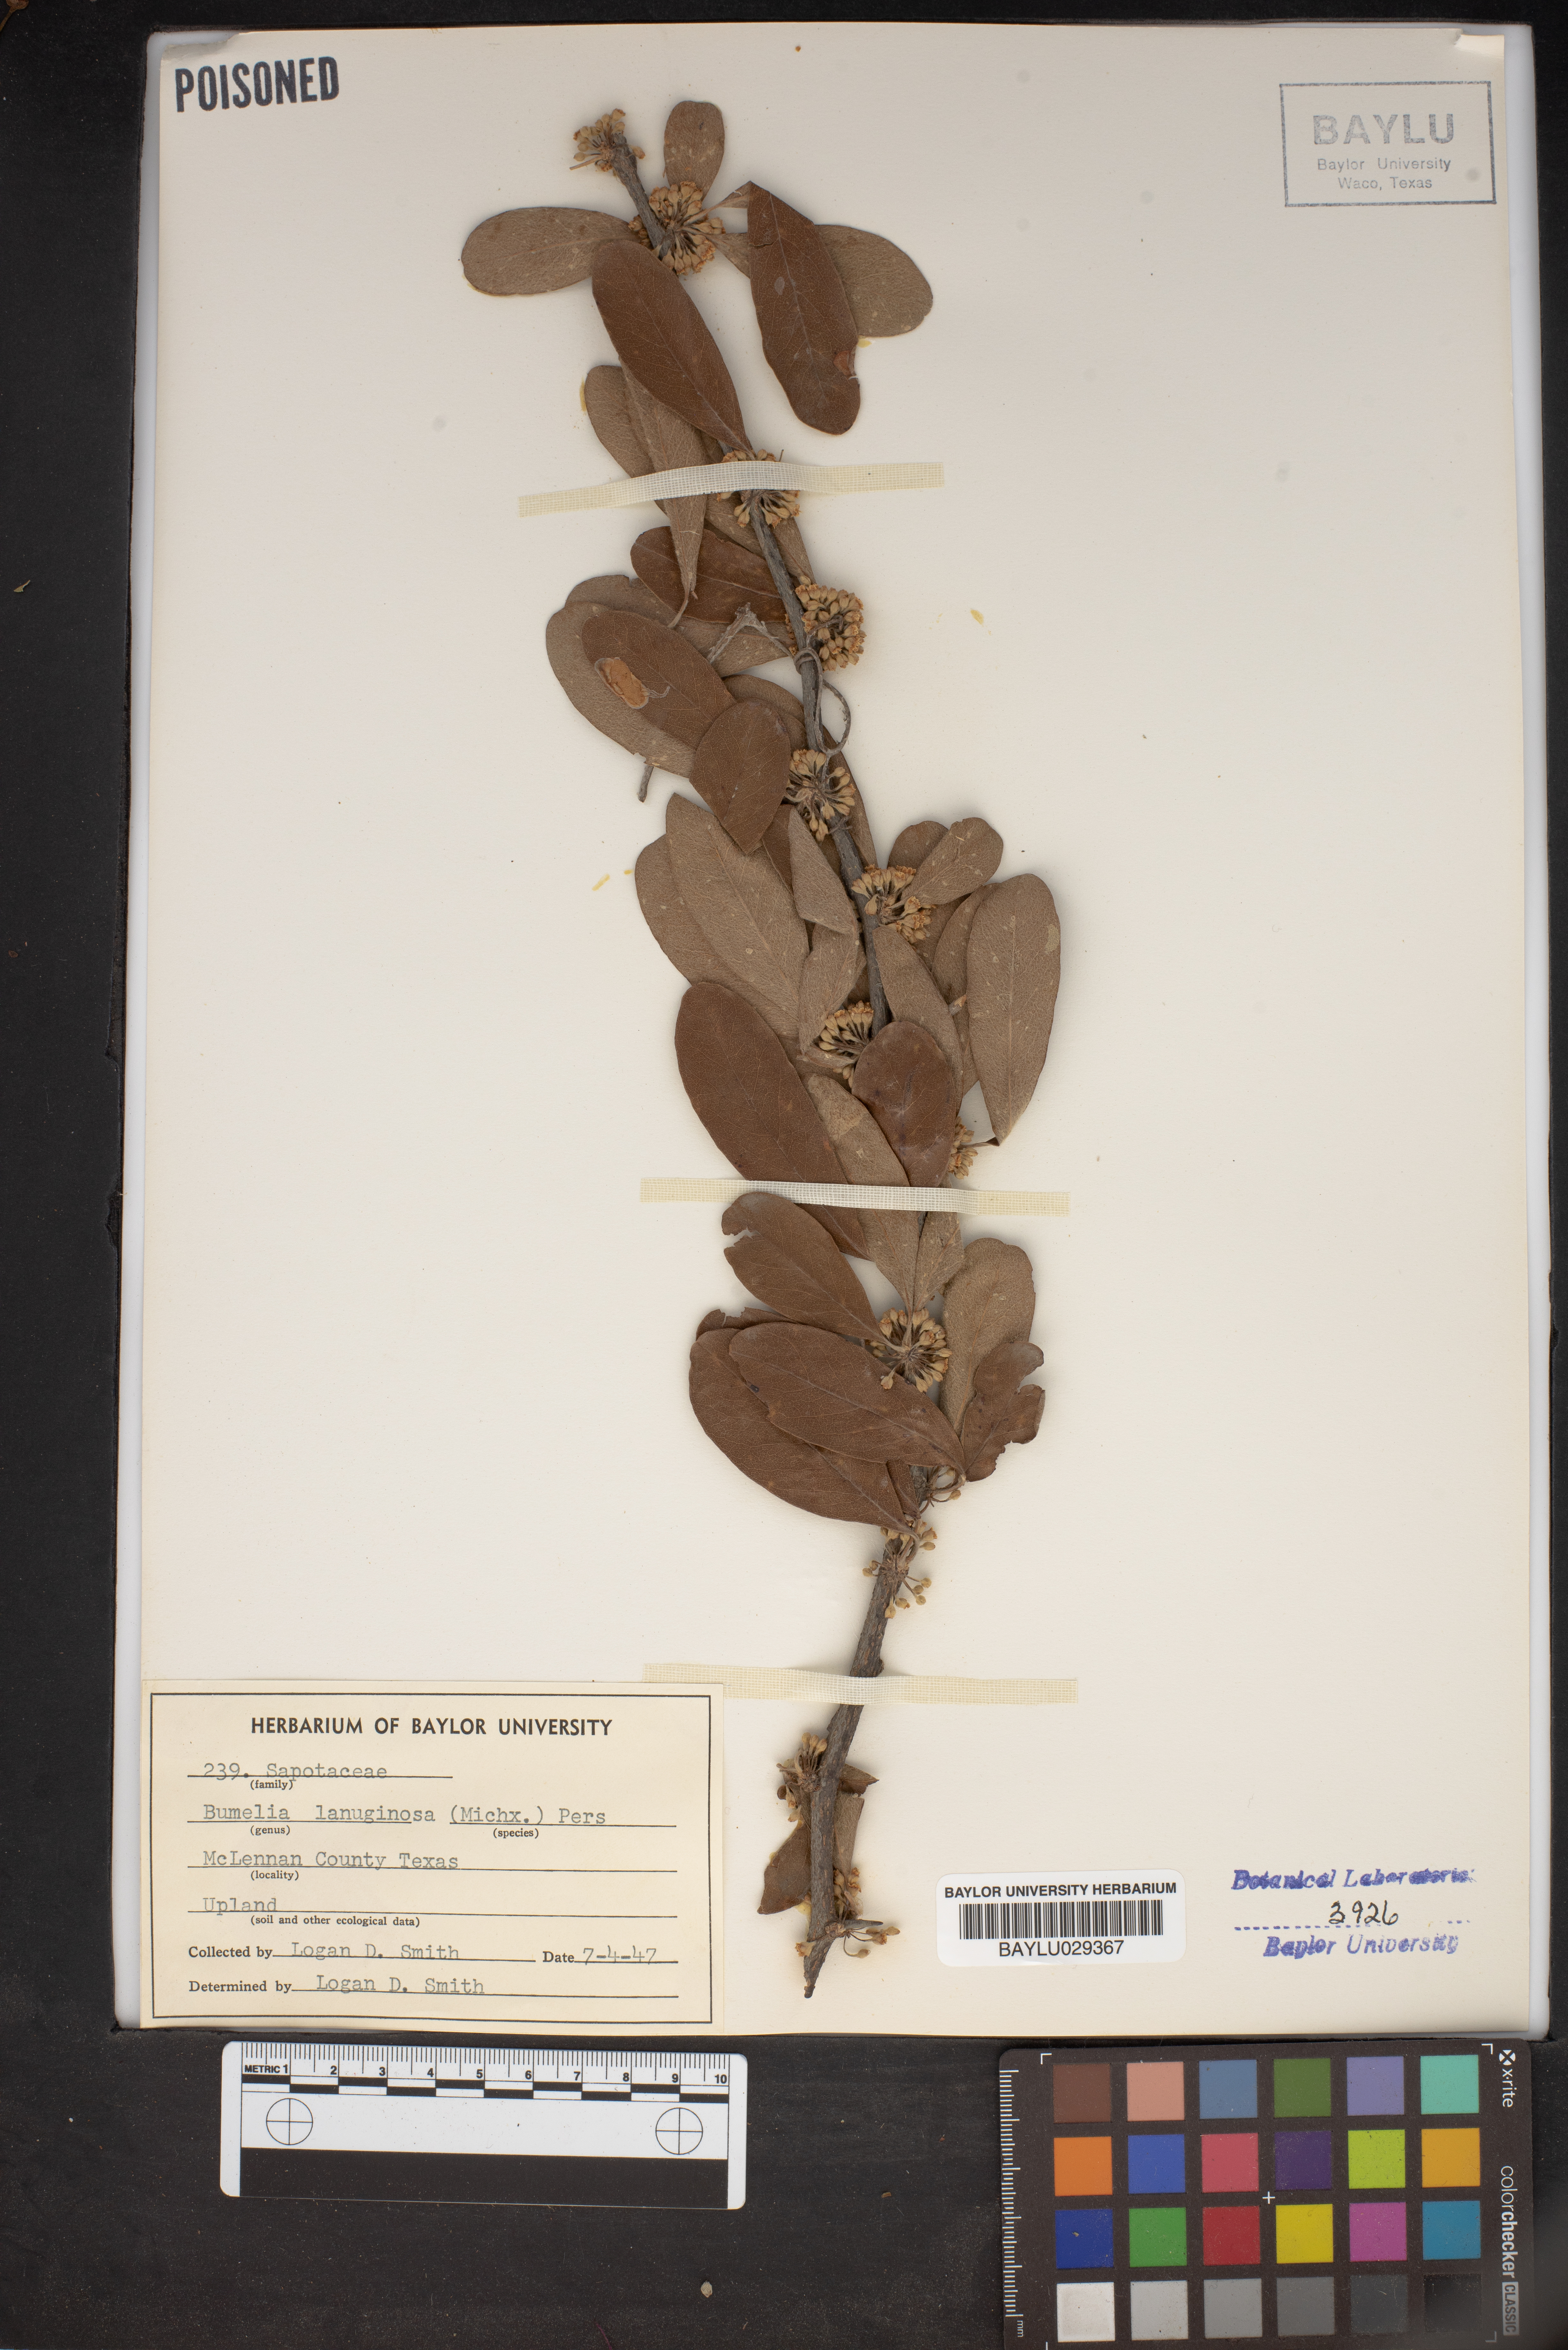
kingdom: Plantae
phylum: Tracheophyta
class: Magnoliopsida
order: Ericales
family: Sapotaceae
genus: Sideroxylon
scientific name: Sideroxylon lanuginosum
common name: Chittamwood
